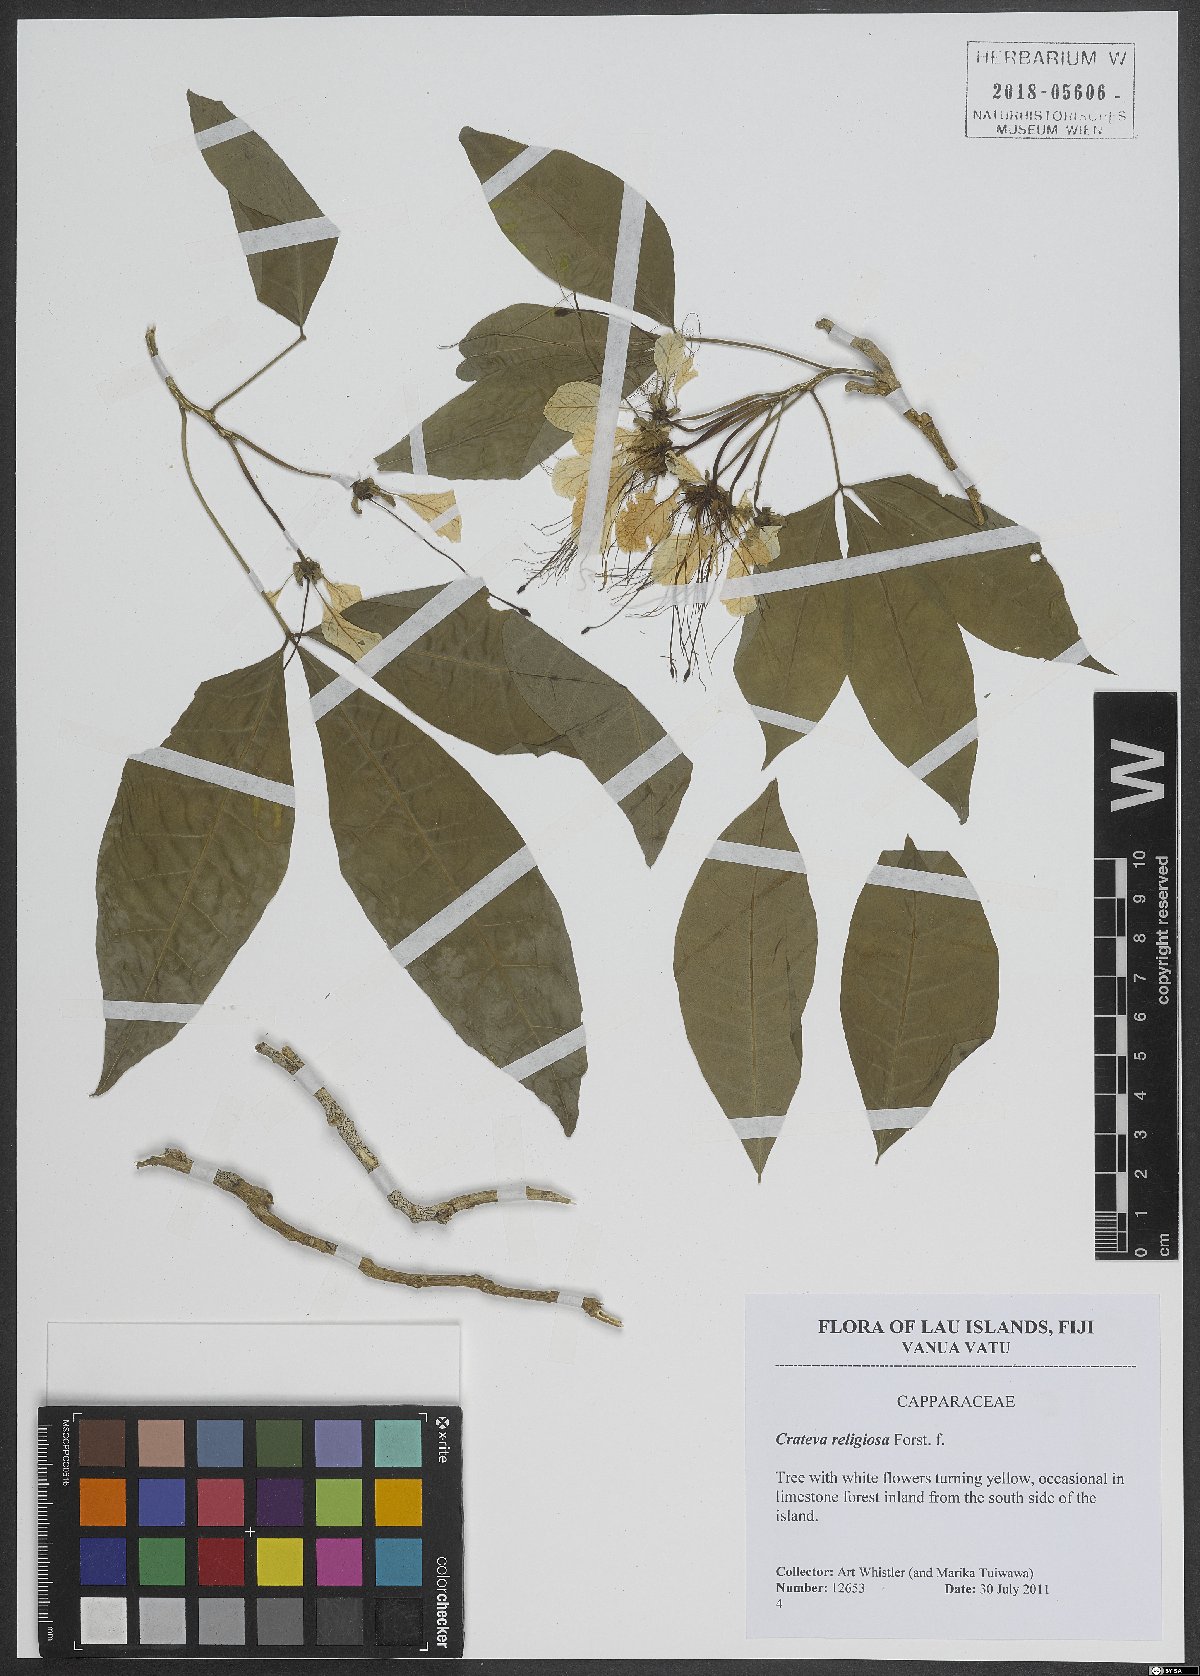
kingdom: Plantae
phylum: Tracheophyta
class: Magnoliopsida
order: Brassicales
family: Capparaceae
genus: Crateva
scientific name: Crateva religiosa
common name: March dalur
